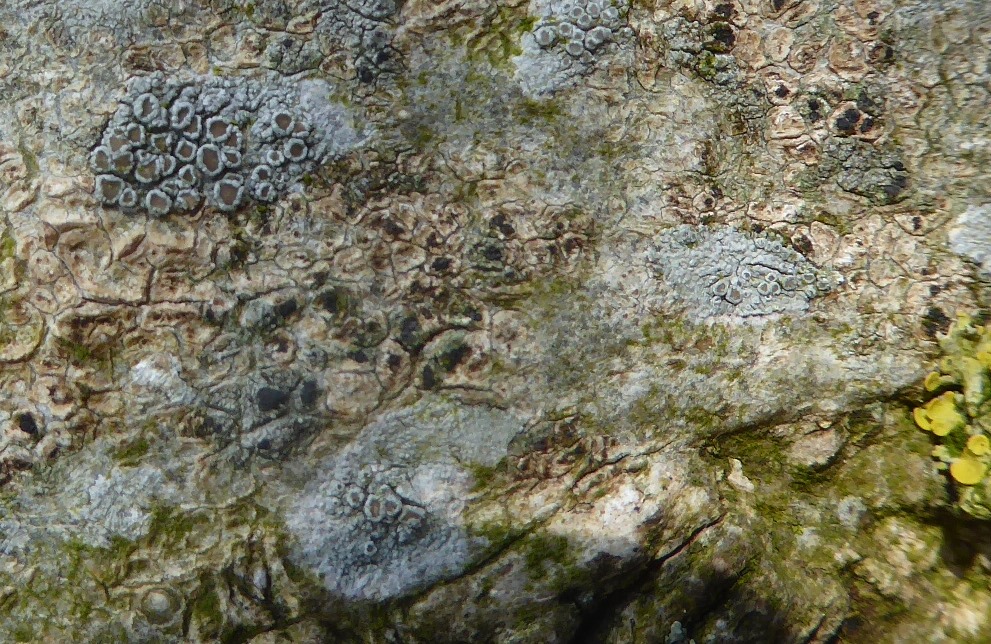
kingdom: Fungi
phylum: Ascomycota
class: Lecanoromycetes
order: Lecanorales
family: Lecanoraceae
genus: Lecanora
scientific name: Lecanora chlarotera
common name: brun kantskivelav
